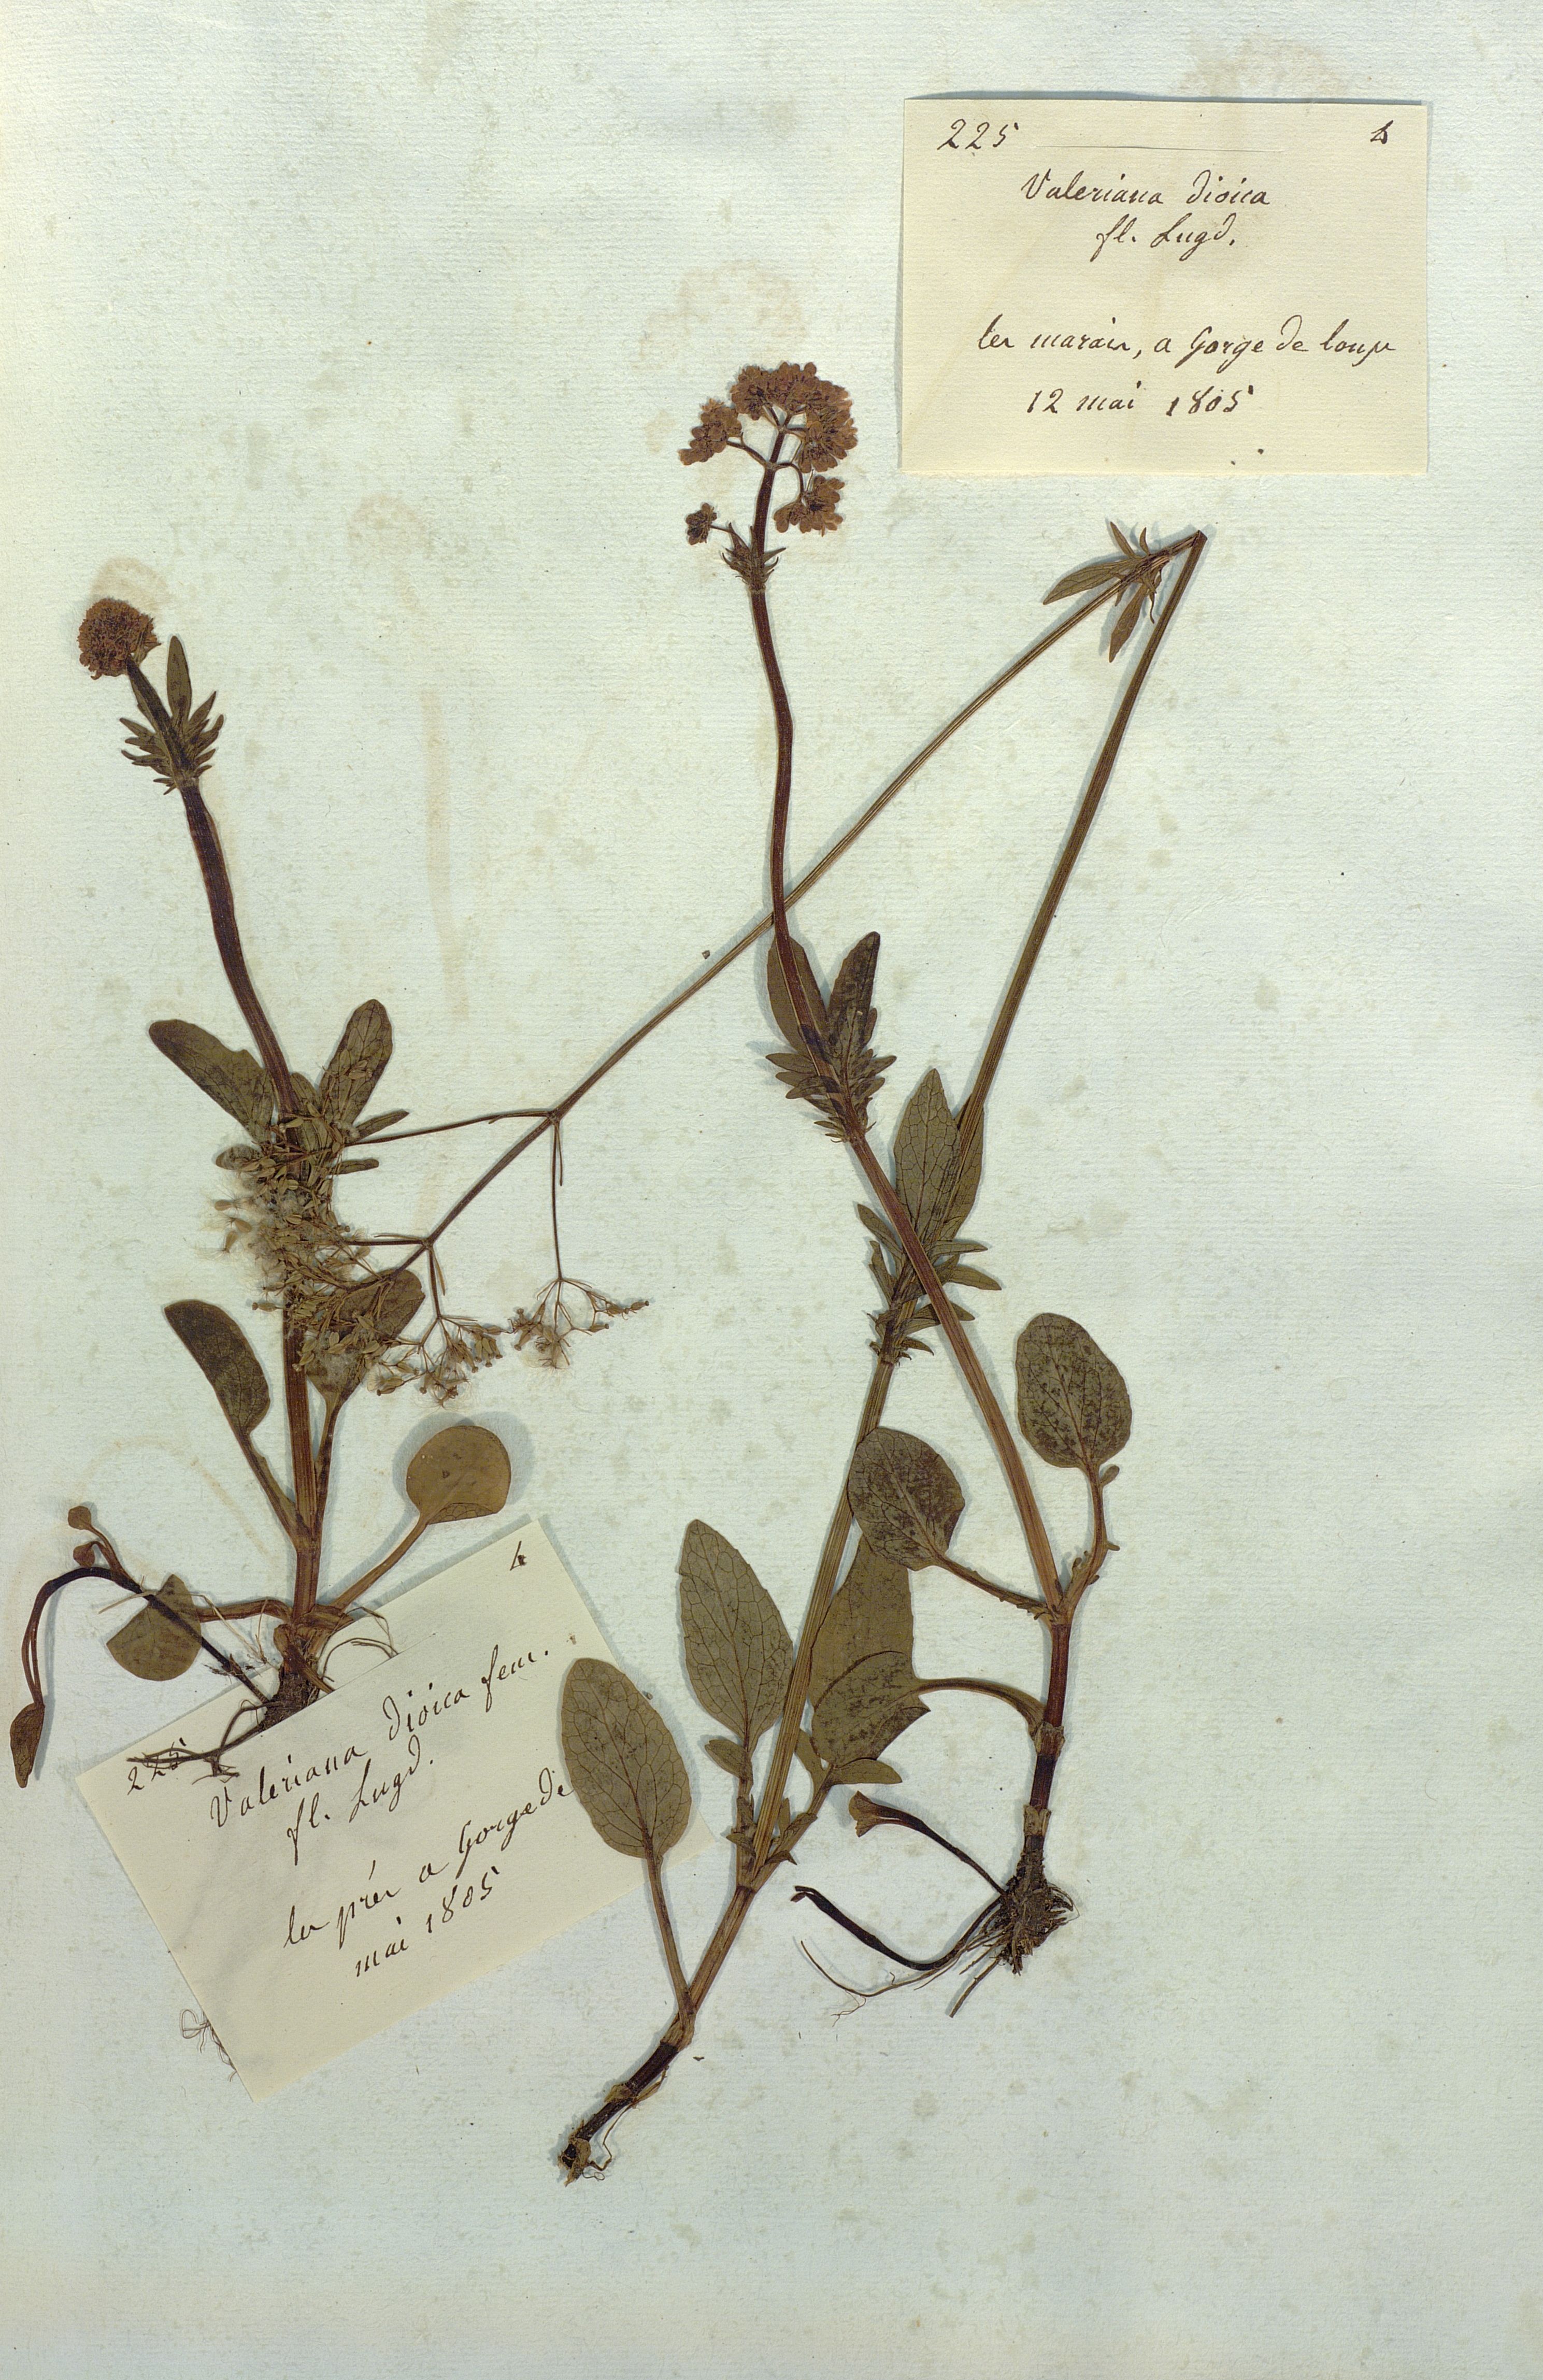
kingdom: Plantae
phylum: Tracheophyta
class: Magnoliopsida
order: Dipsacales
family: Caprifoliaceae
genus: Valeriana
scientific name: Valeriana dioica
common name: Marsh valerian
